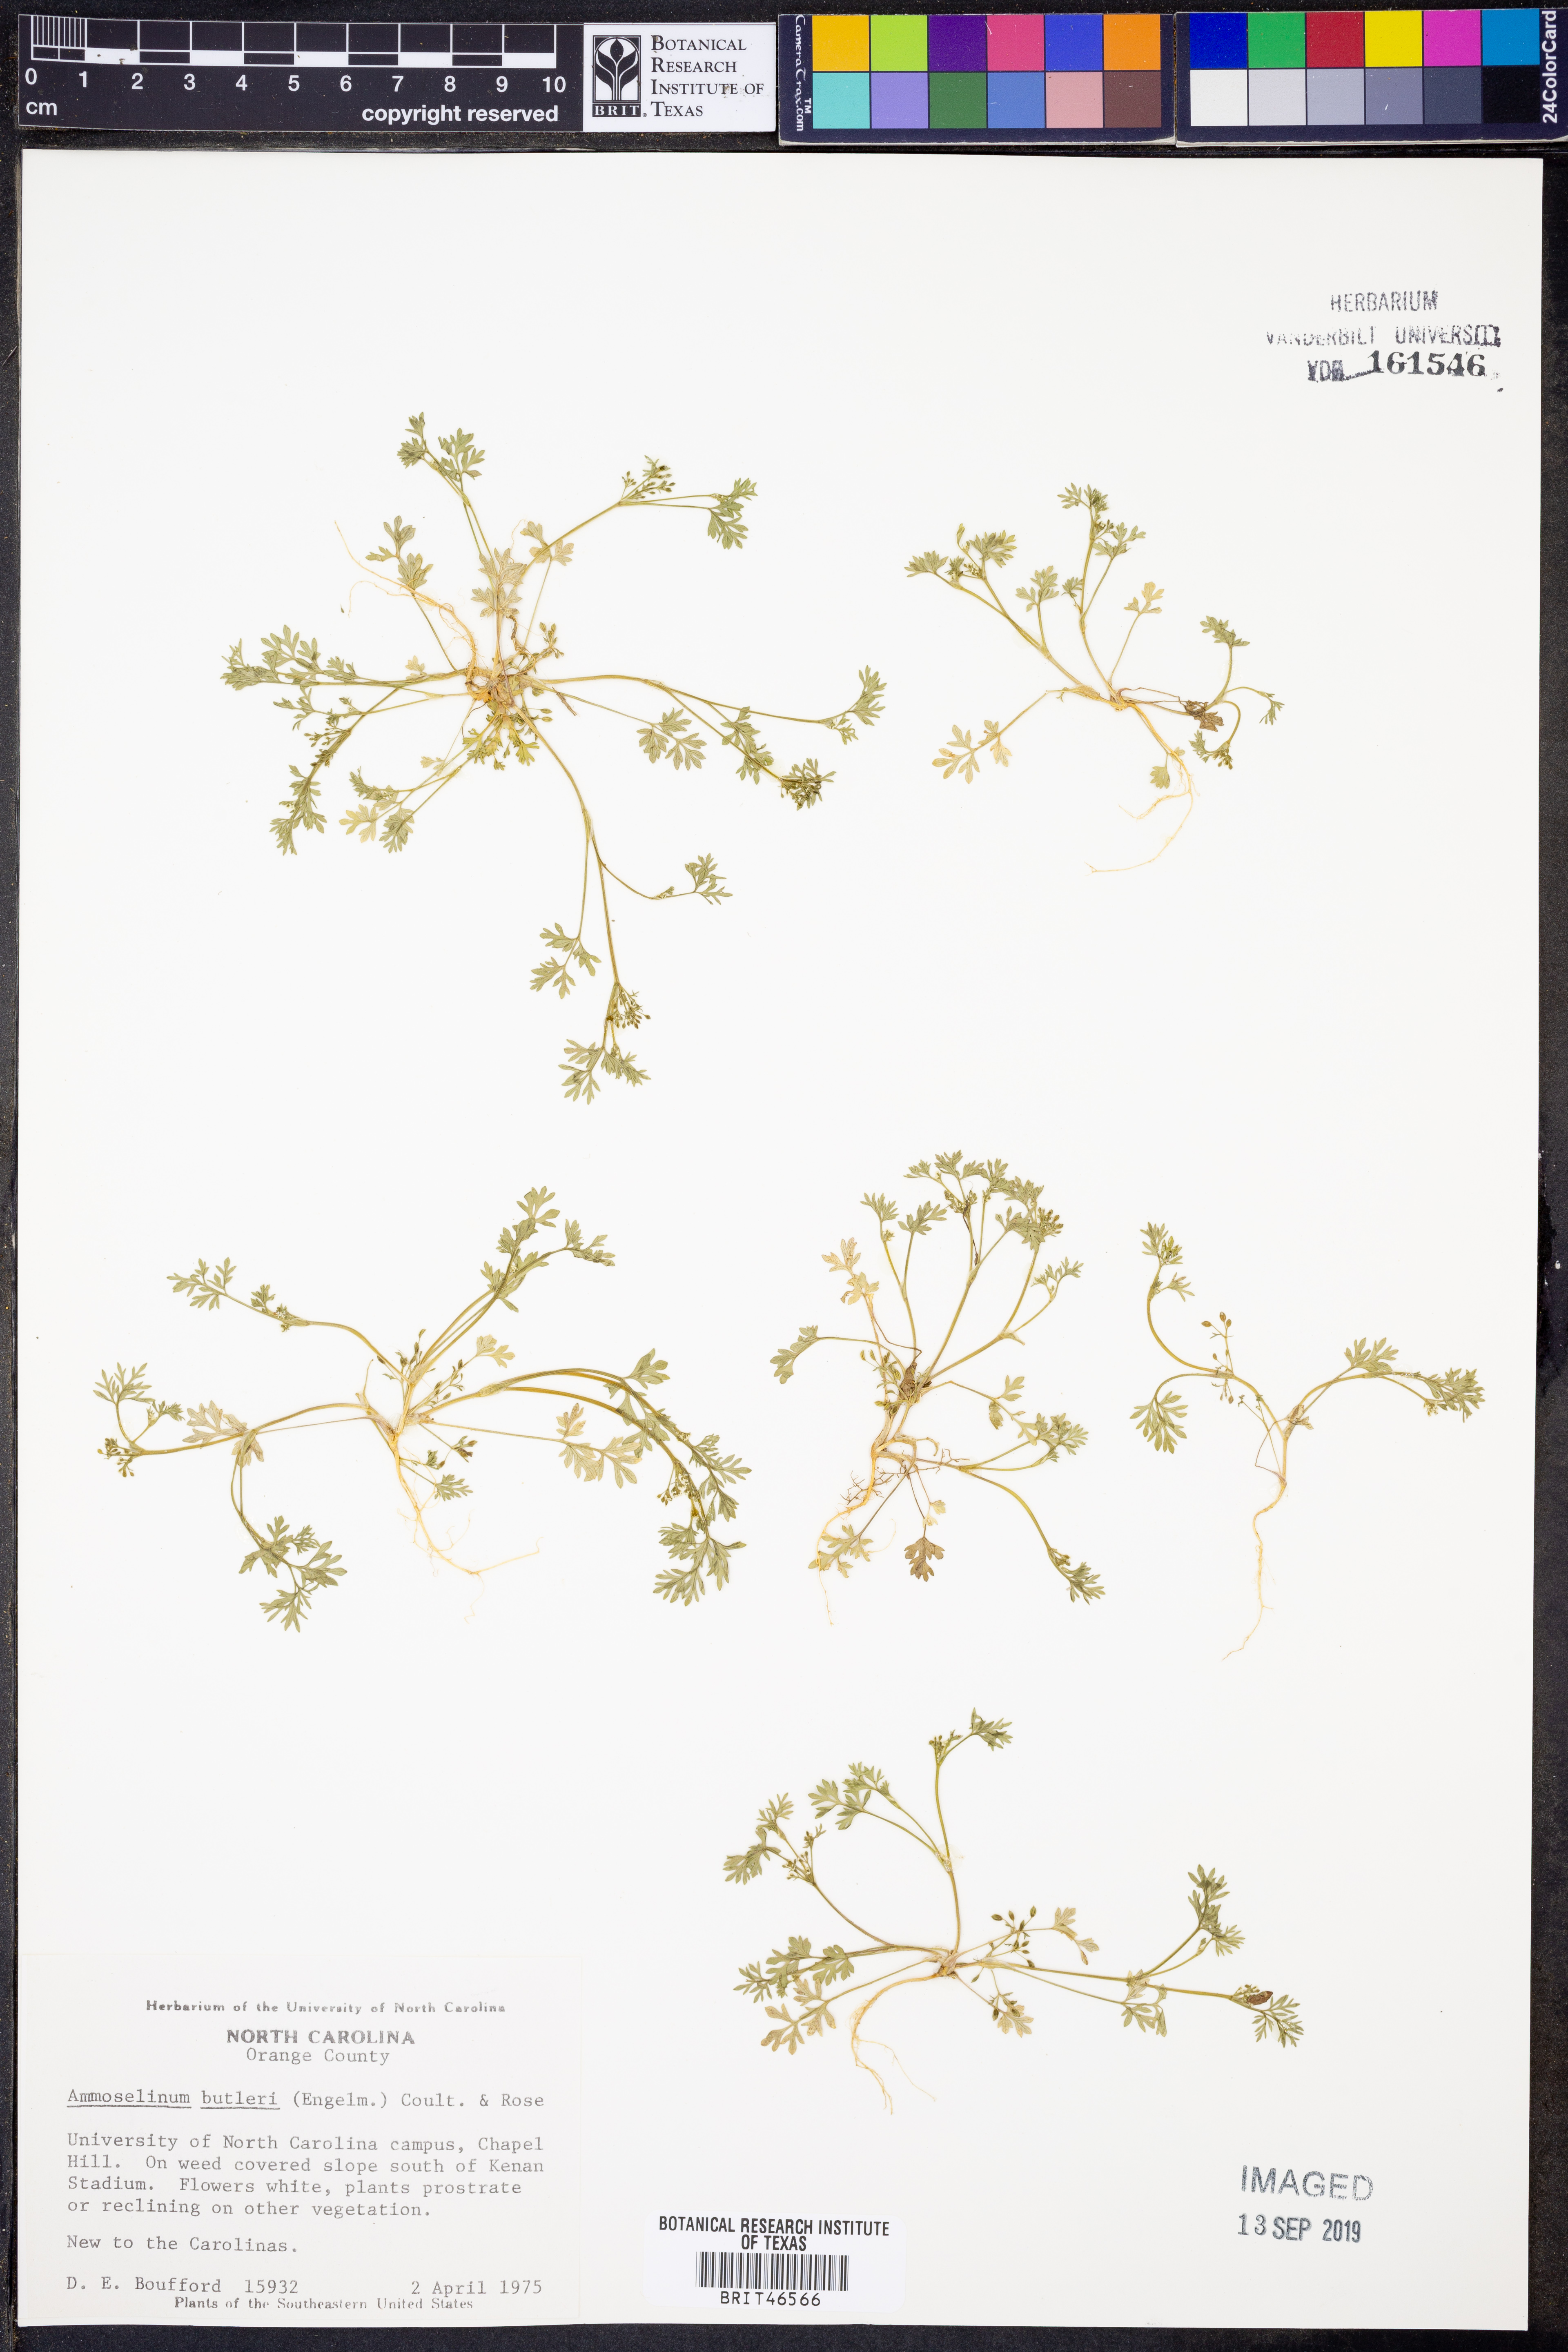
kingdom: Plantae
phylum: Tracheophyta
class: Magnoliopsida
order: Apiales
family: Apiaceae
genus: Ammoselinum
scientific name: Ammoselinum butleri
